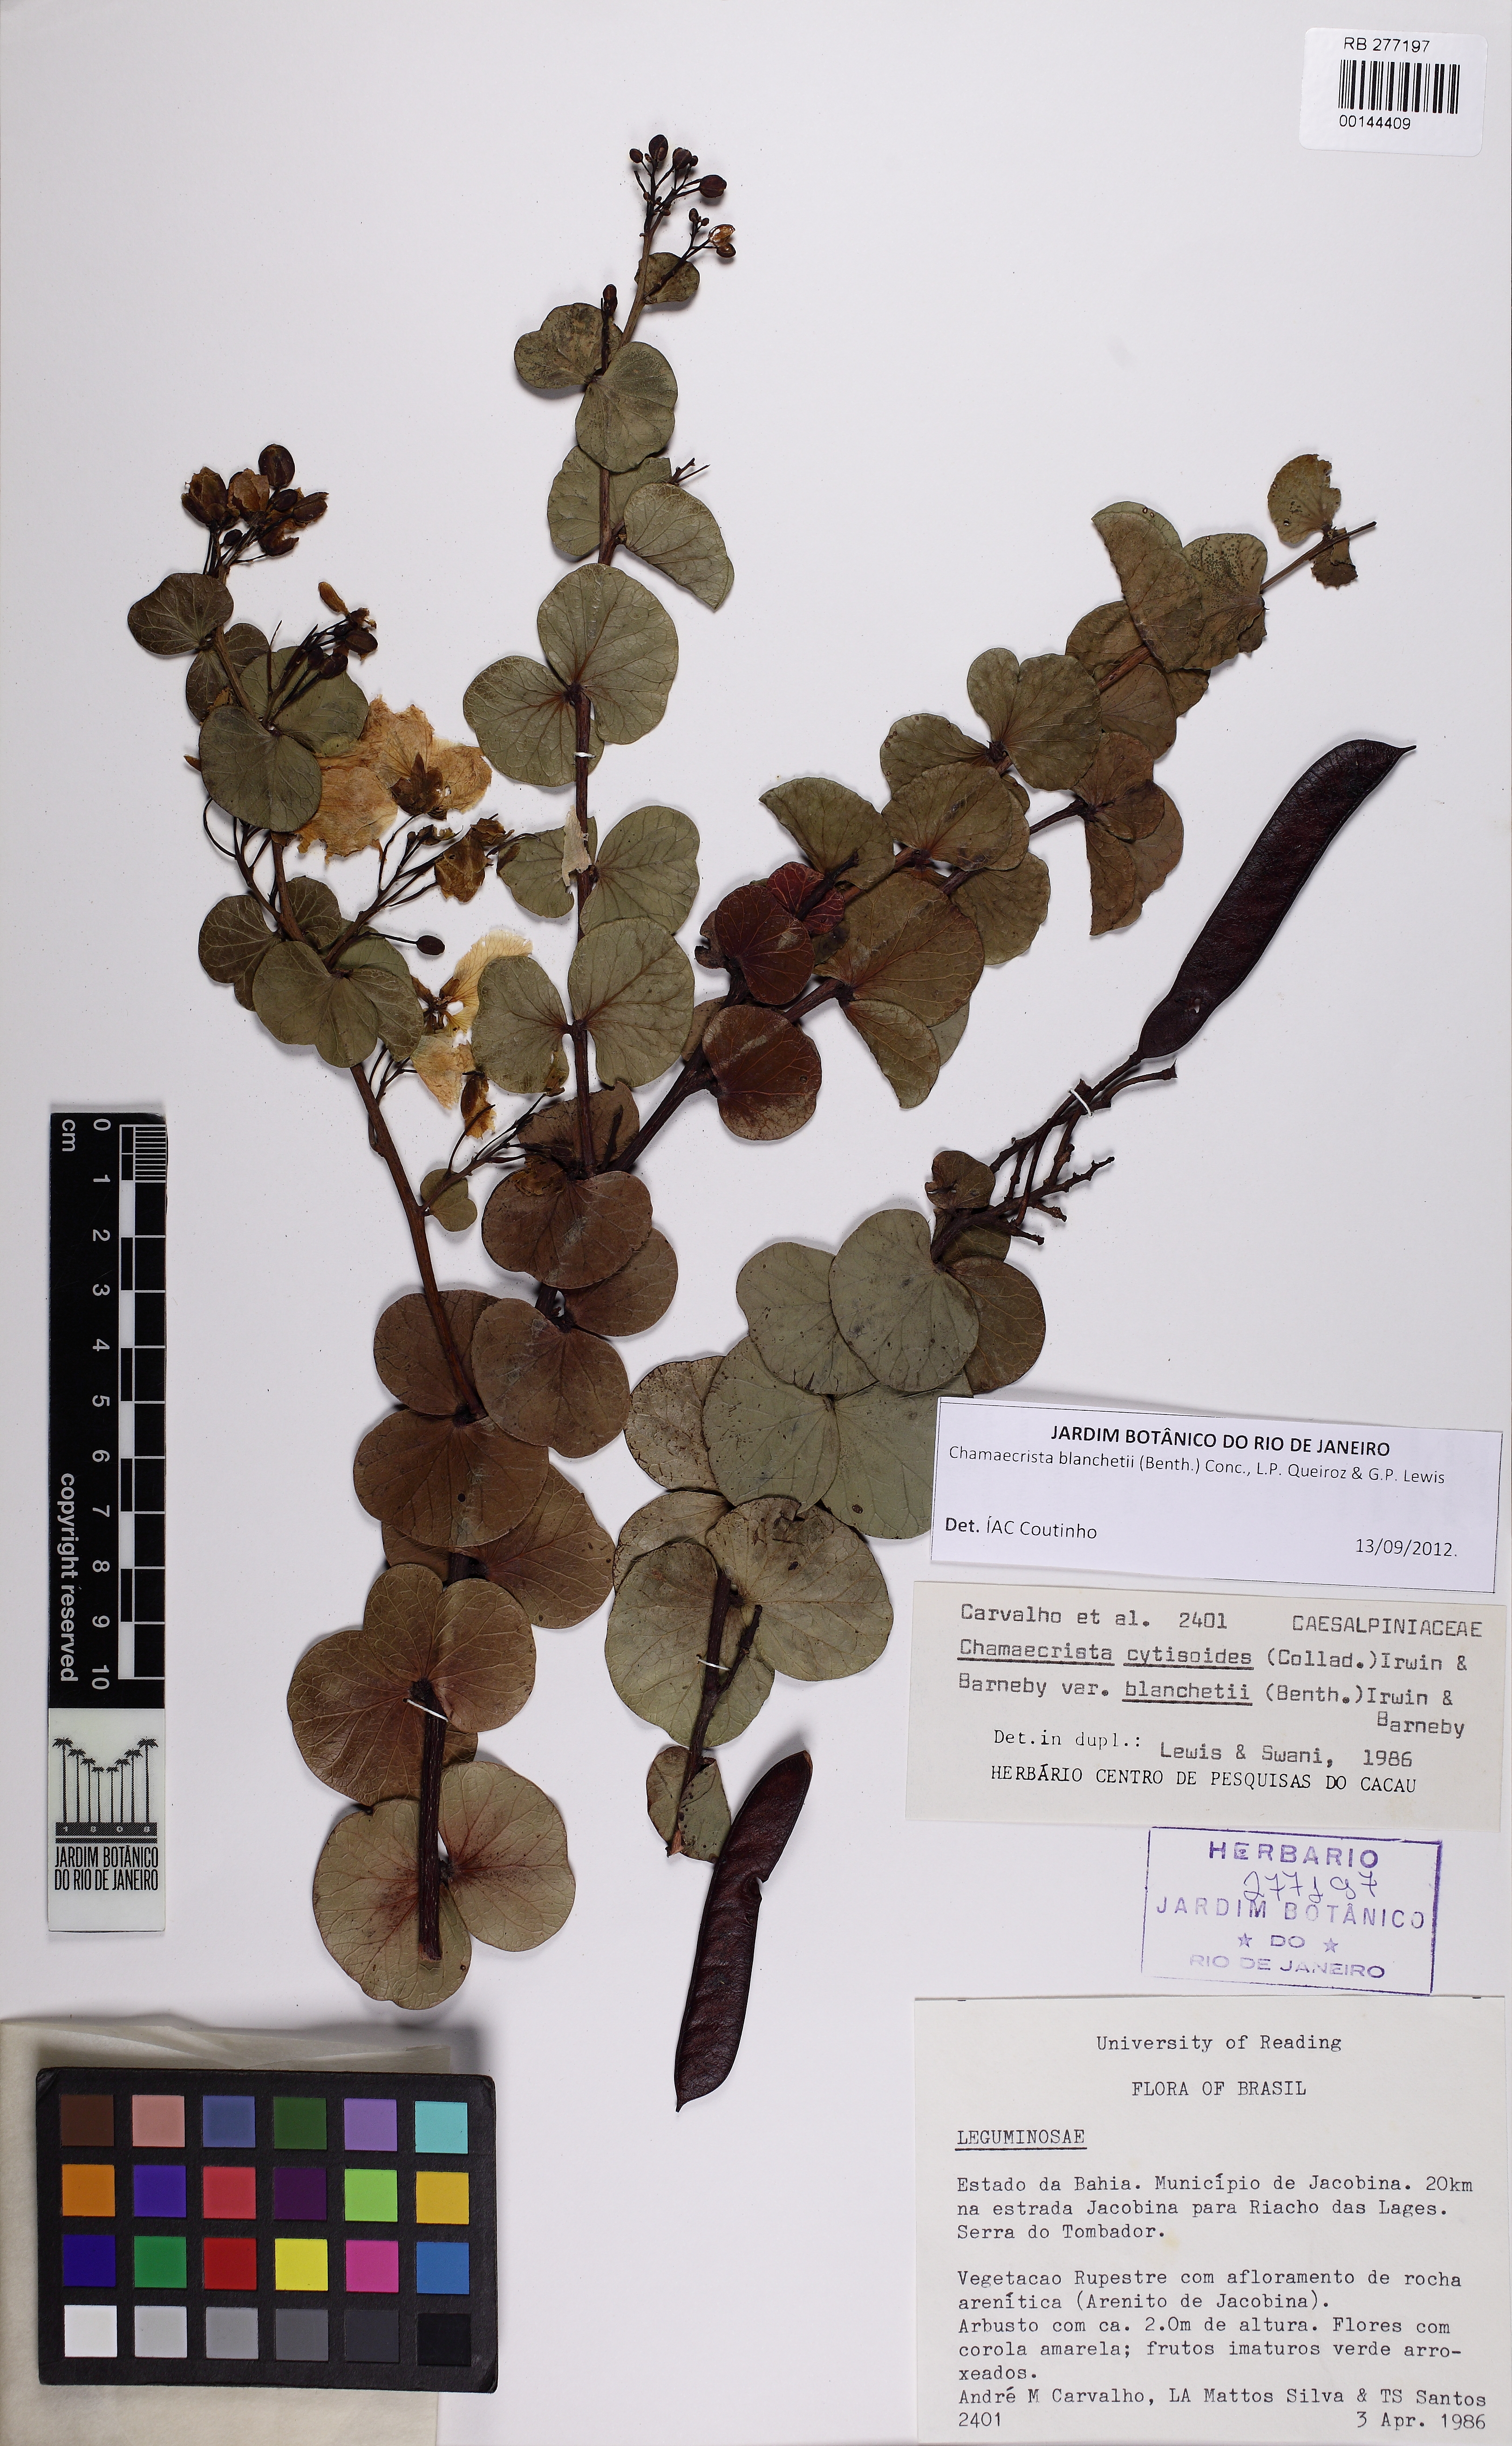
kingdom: Plantae
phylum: Tracheophyta
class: Magnoliopsida
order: Fabales
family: Fabaceae
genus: Chamaecrista
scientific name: Chamaecrista blanchetii
